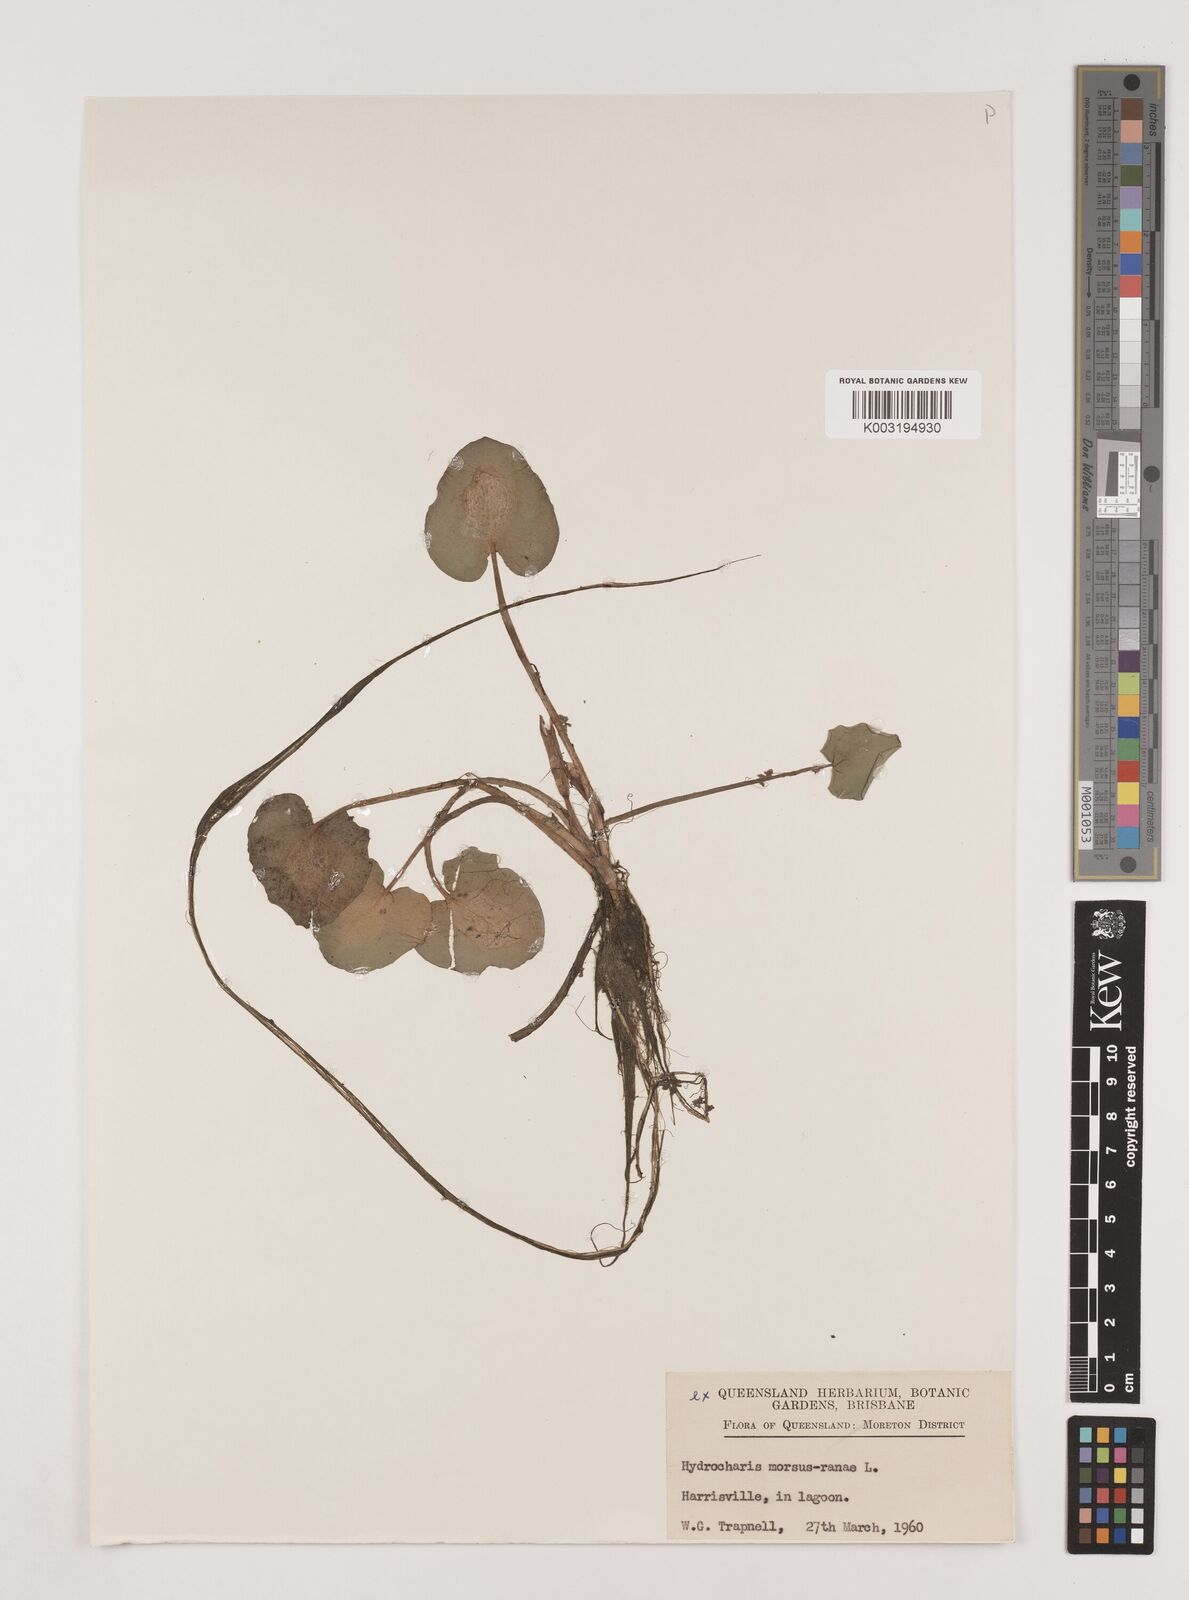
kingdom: Plantae
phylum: Tracheophyta
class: Liliopsida
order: Alismatales
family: Hydrocharitaceae
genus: Hydrocharis
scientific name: Hydrocharis morsus-ranae
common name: Frogbit
